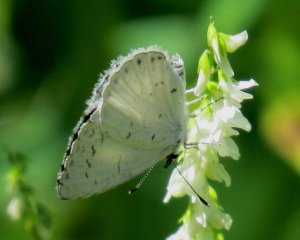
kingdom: Animalia
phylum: Arthropoda
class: Insecta
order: Lepidoptera
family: Lycaenidae
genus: Cyaniris
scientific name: Cyaniris neglecta
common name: Summer Azure
